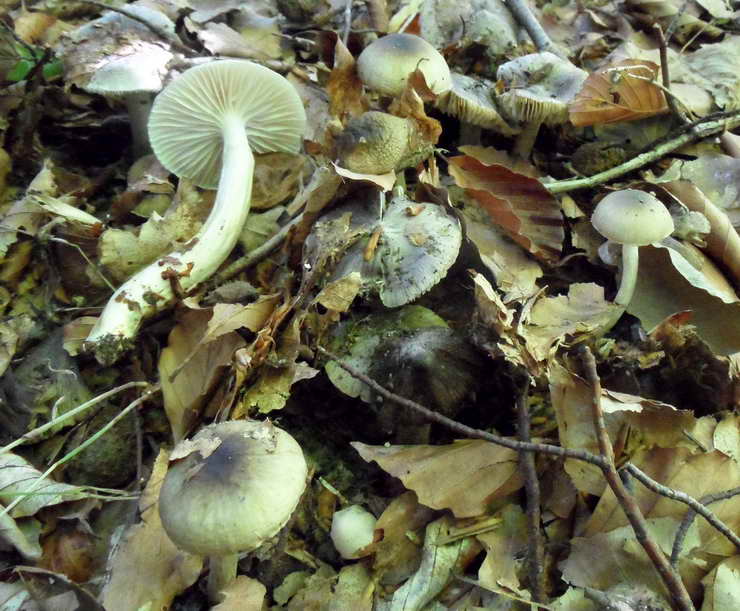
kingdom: Fungi
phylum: Basidiomycota
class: Agaricomycetes
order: Agaricales
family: Hygrophoraceae
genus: Hygrophorus
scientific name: Hygrophorus mesotephrus
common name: askegrå sneglehat
